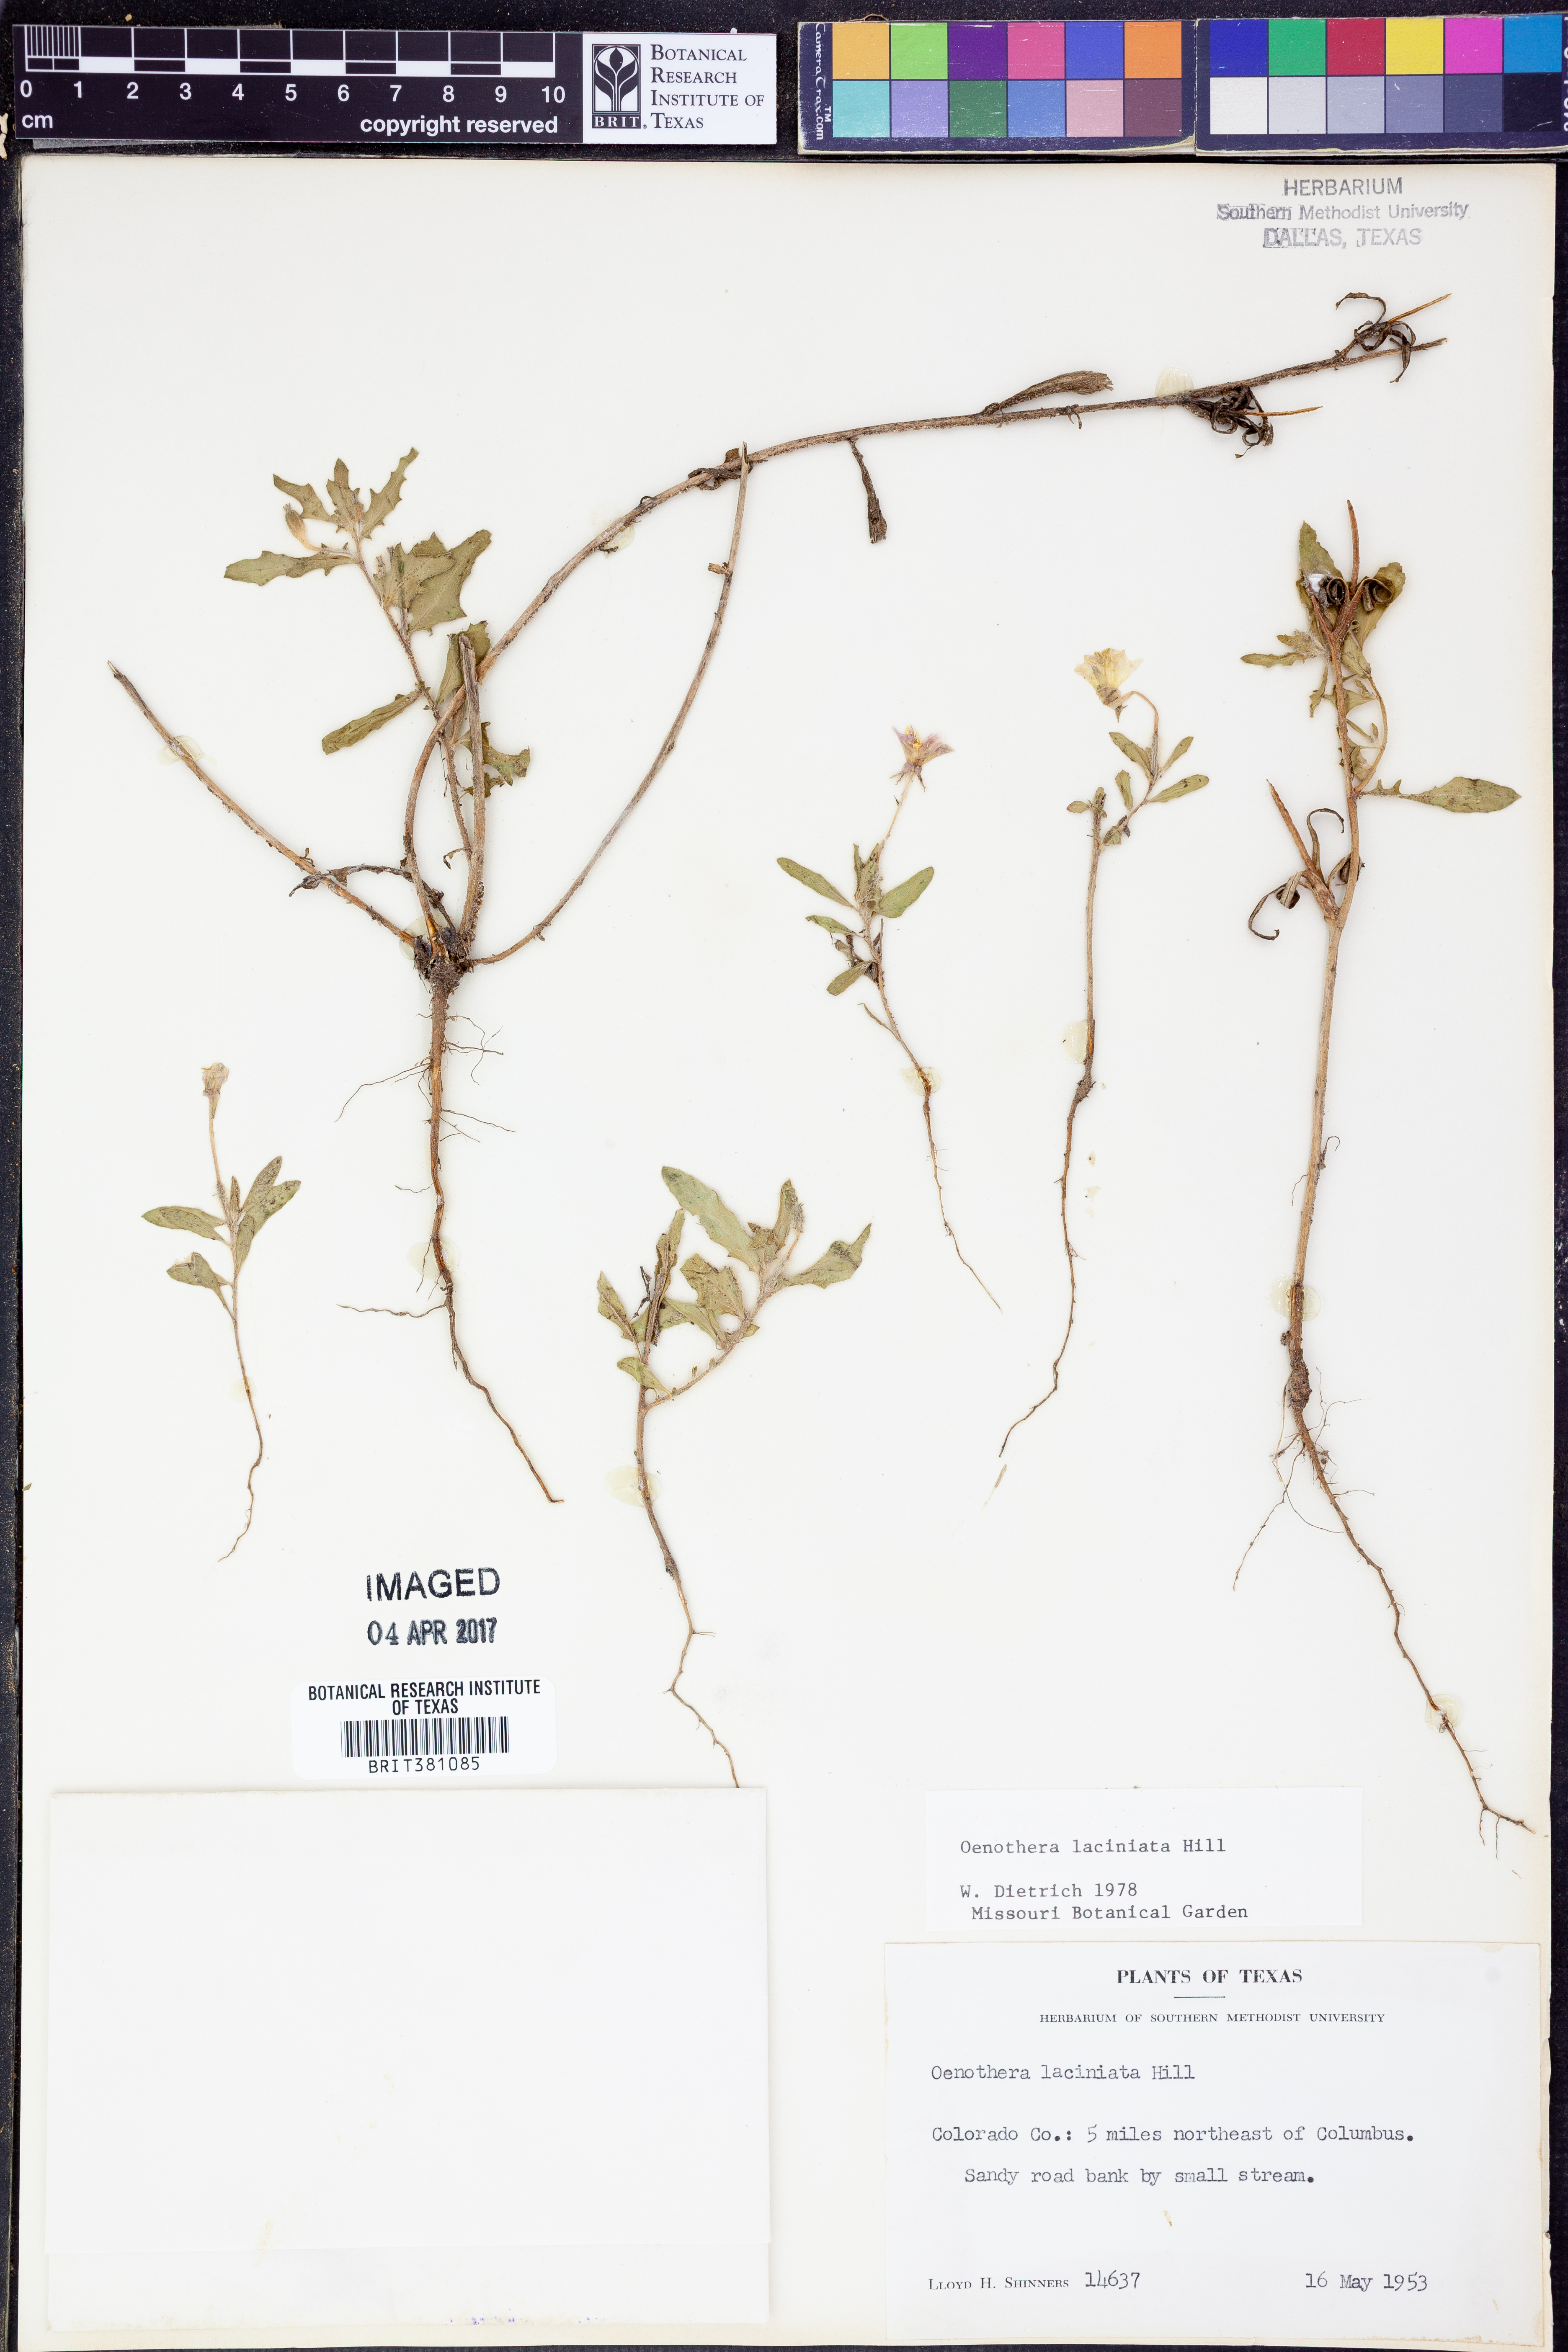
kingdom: Plantae
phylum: Tracheophyta
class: Magnoliopsida
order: Myrtales
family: Onagraceae
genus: Oenothera
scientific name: Oenothera laciniata
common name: Cut-leaved evening-primrose
